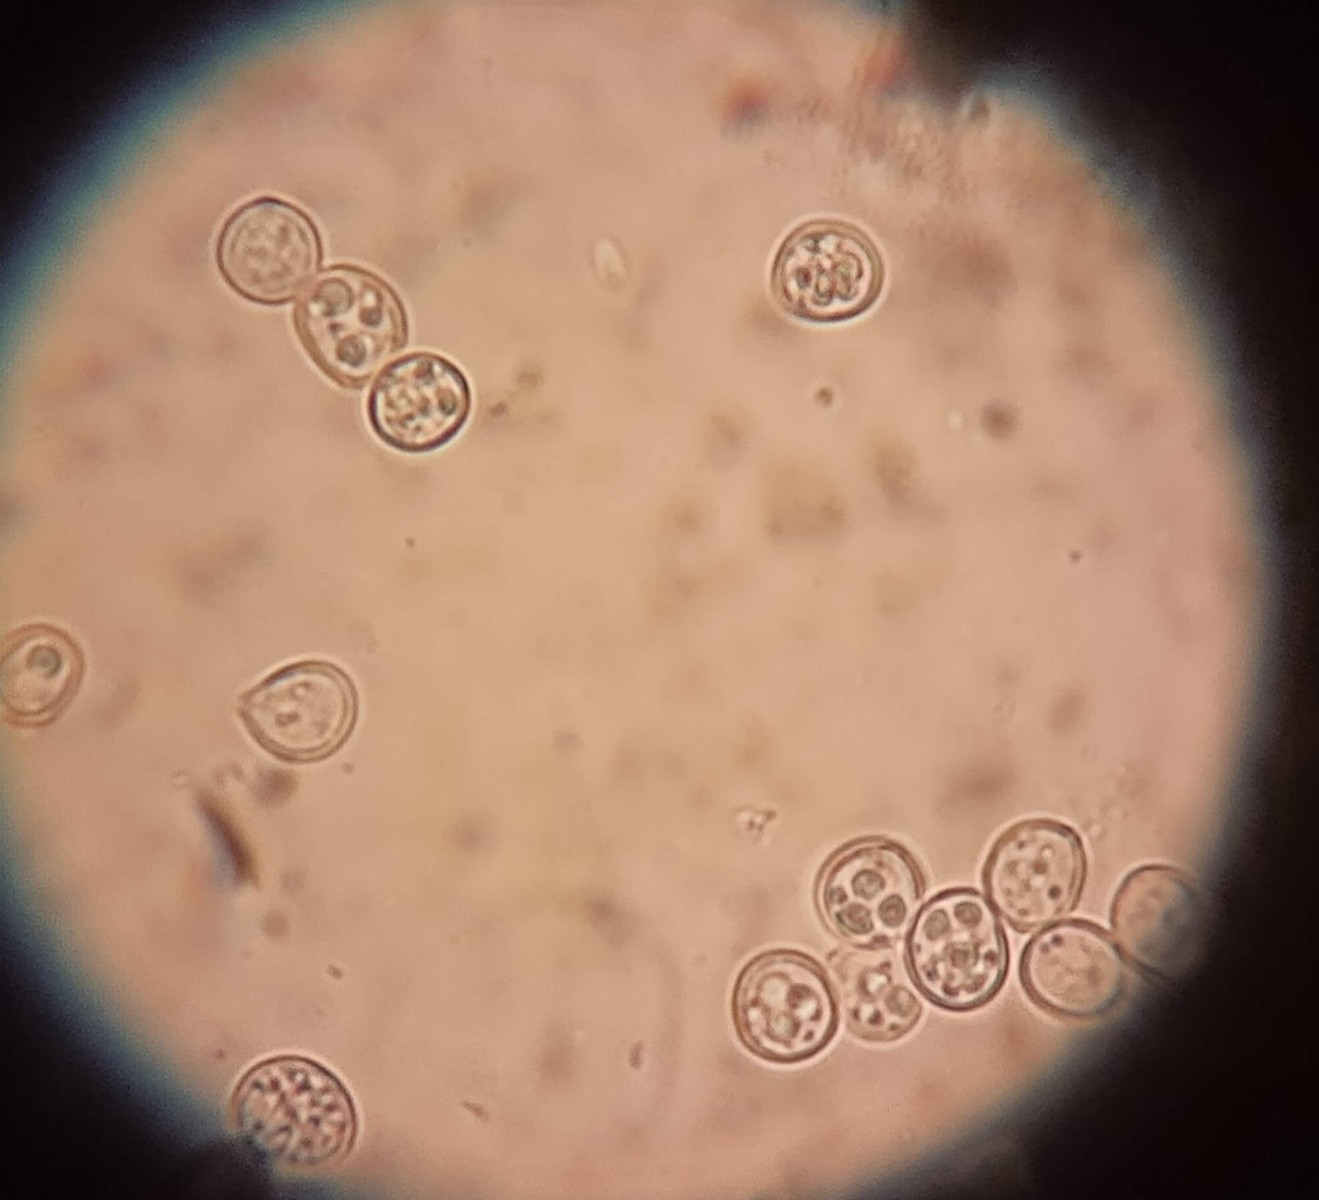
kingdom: Fungi
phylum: Basidiomycota
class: Agaricomycetes
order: Agaricales
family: Pluteaceae
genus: Pluteus
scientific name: Pluteus semibulbosus
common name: knoldet skærmhat
